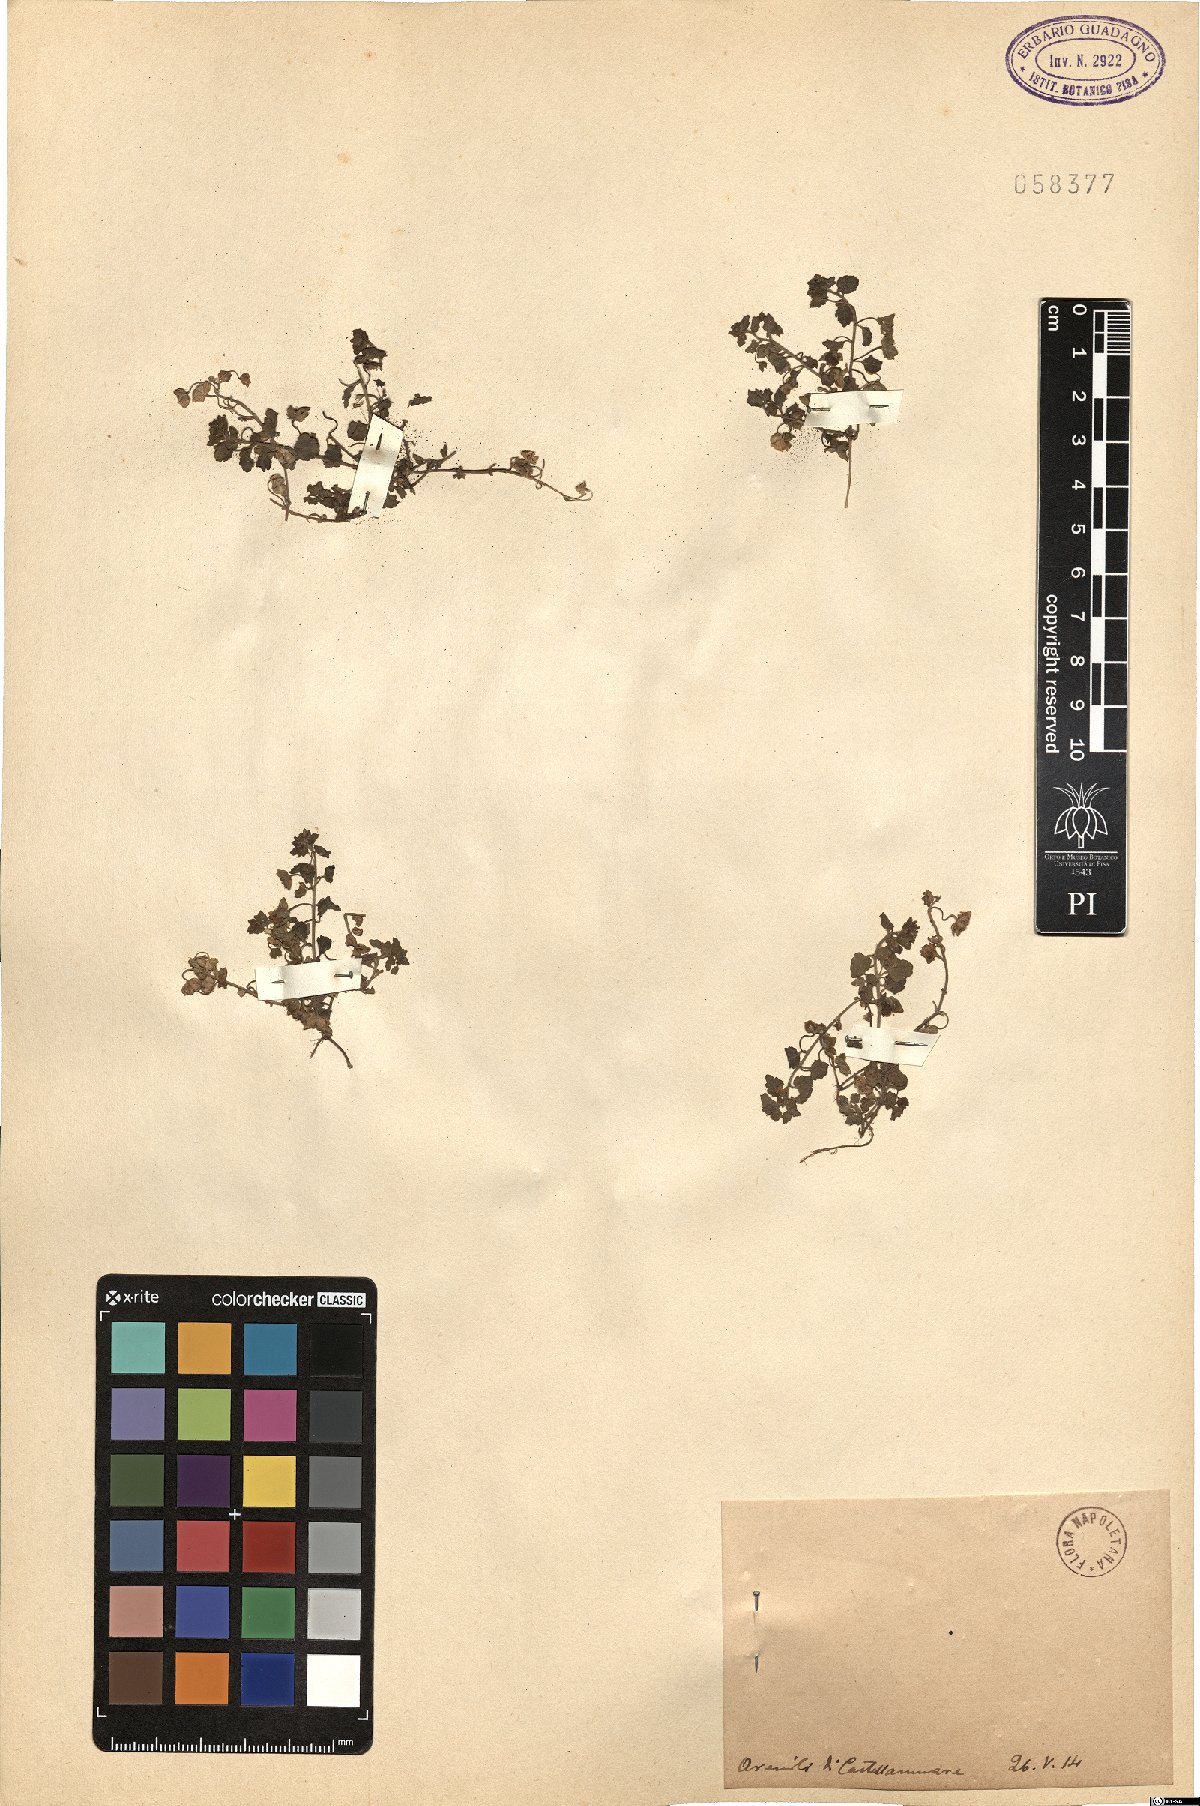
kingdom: Plantae
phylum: Tracheophyta
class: Magnoliopsida
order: Lamiales
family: Plantaginaceae
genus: Veronica
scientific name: Veronica
